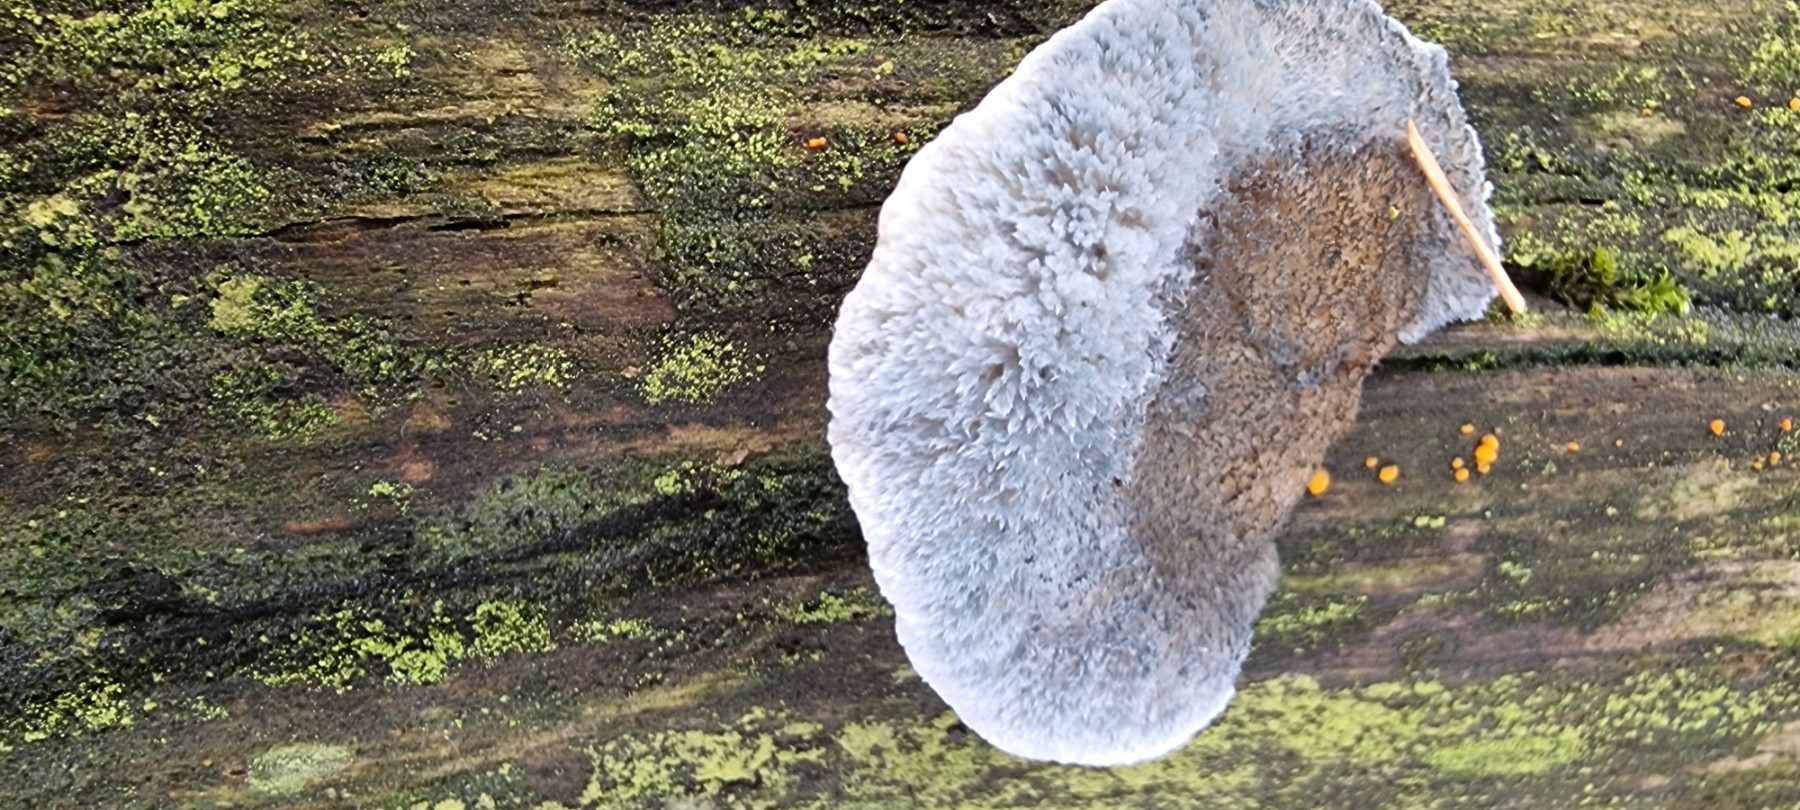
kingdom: Fungi
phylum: Basidiomycota
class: Agaricomycetes
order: Polyporales
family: Polyporaceae
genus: Cyanosporus
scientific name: Cyanosporus caesius
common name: blålig kødporesvamp
